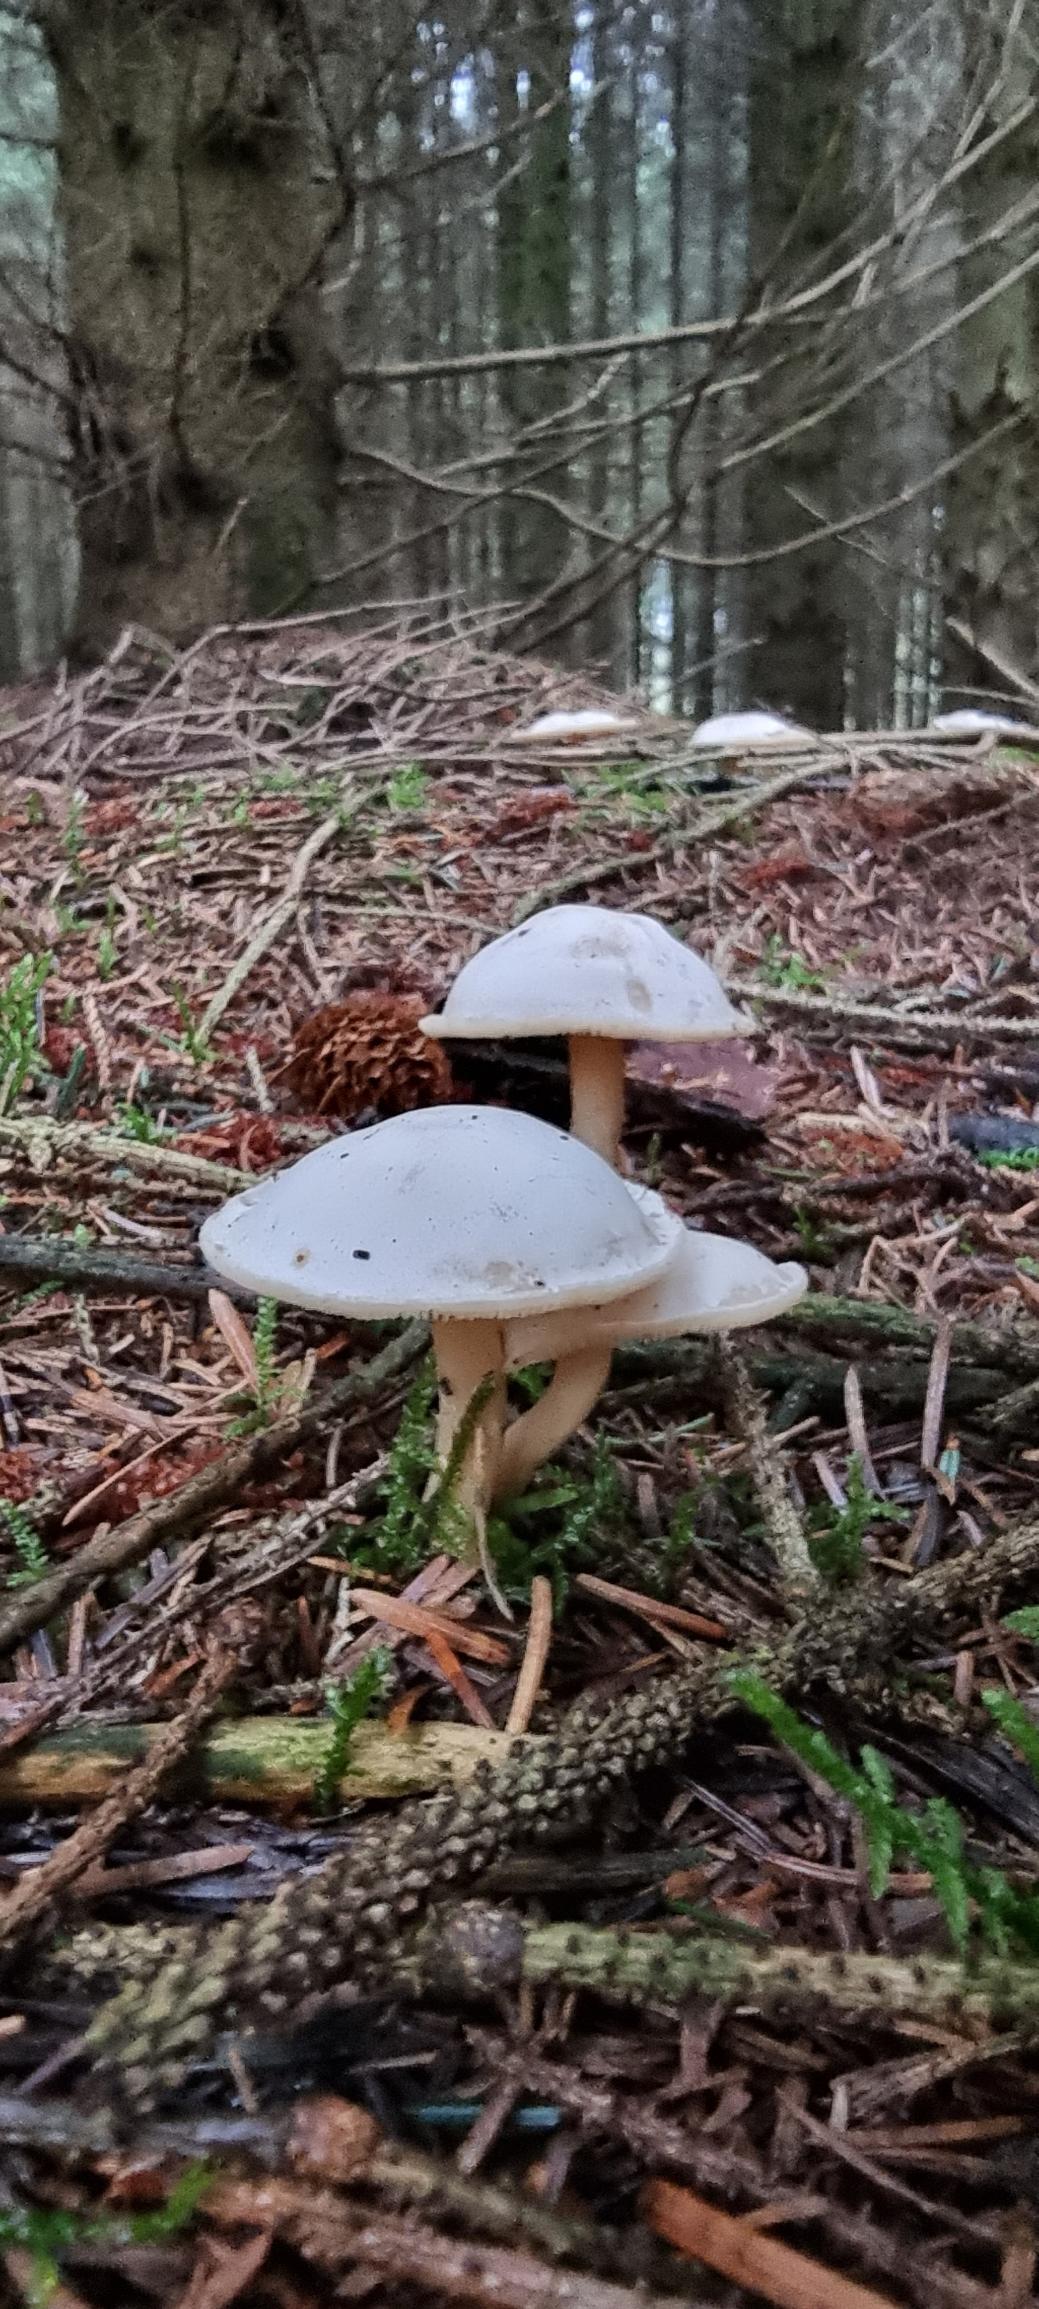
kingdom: Fungi
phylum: Basidiomycota
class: Agaricomycetes
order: Agaricales
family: Omphalotaceae
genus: Rhodocollybia
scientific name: Rhodocollybia
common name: Fladhat
